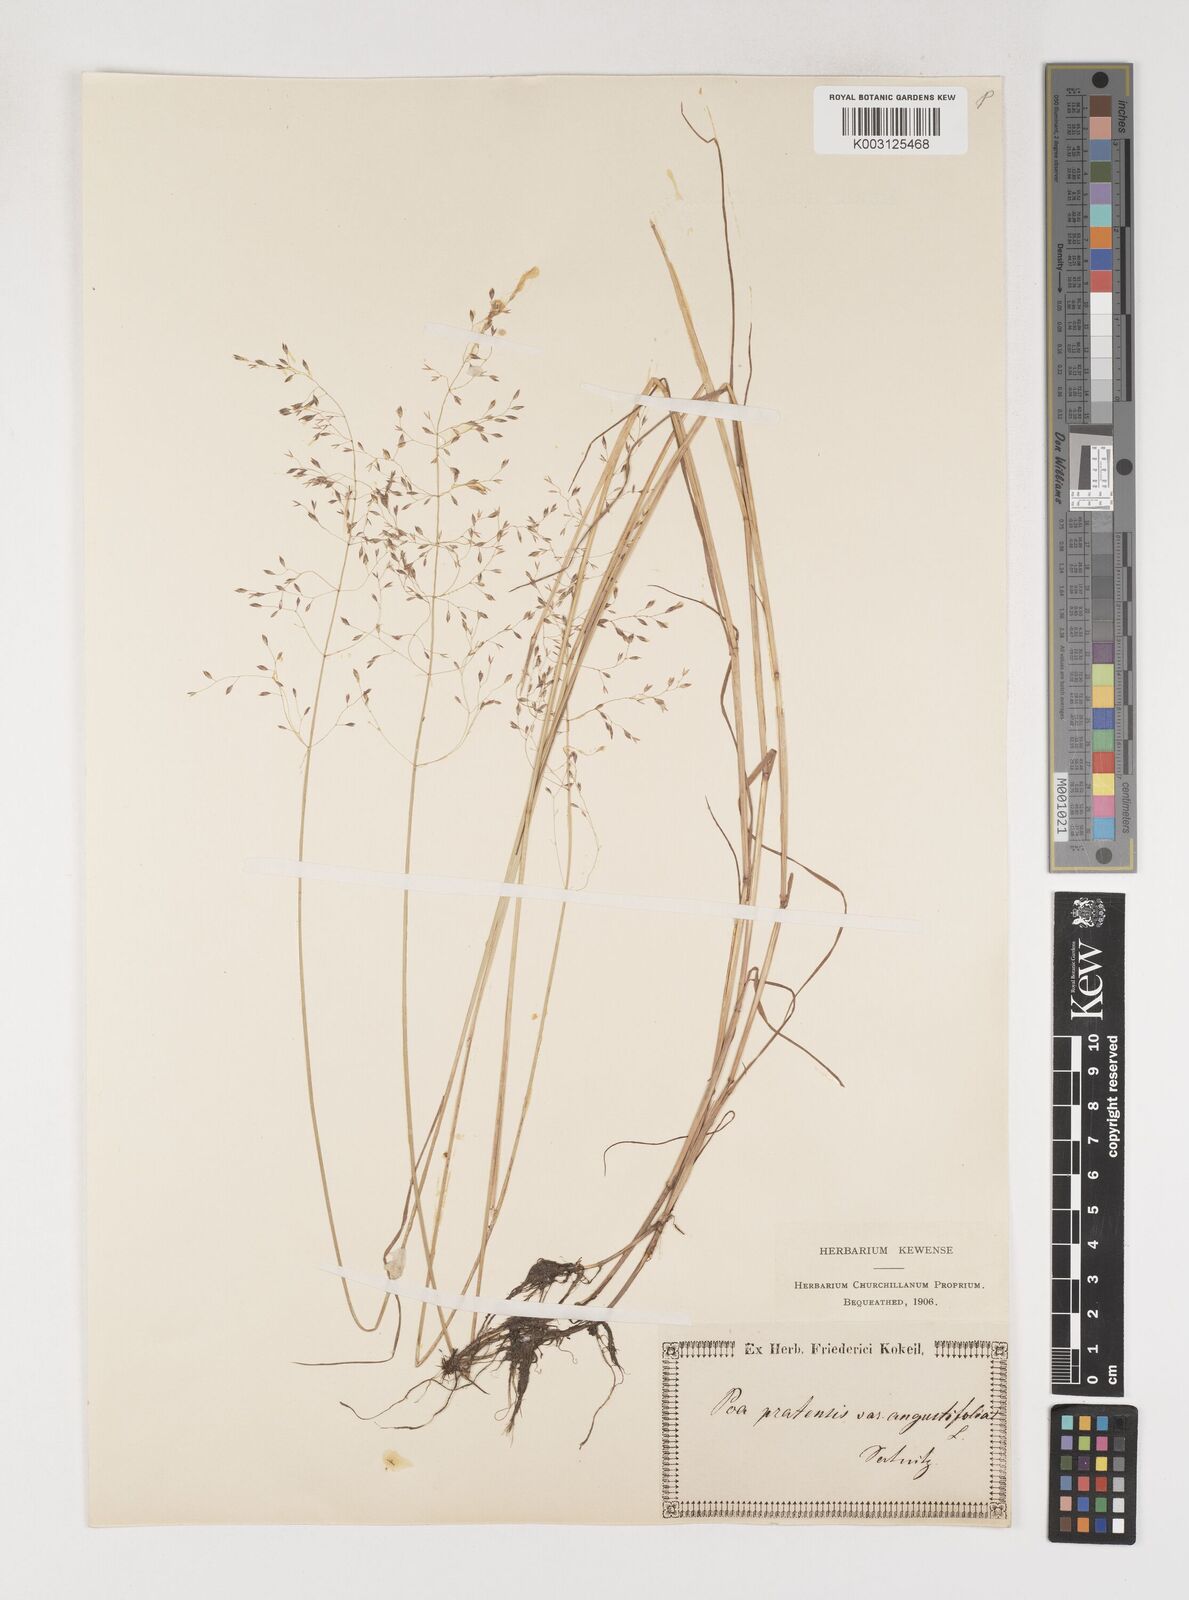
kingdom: Plantae
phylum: Tracheophyta
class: Liliopsida
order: Poales
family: Poaceae
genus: Poa
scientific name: Poa angustifolia
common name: Narrow-leaved meadow-grass
